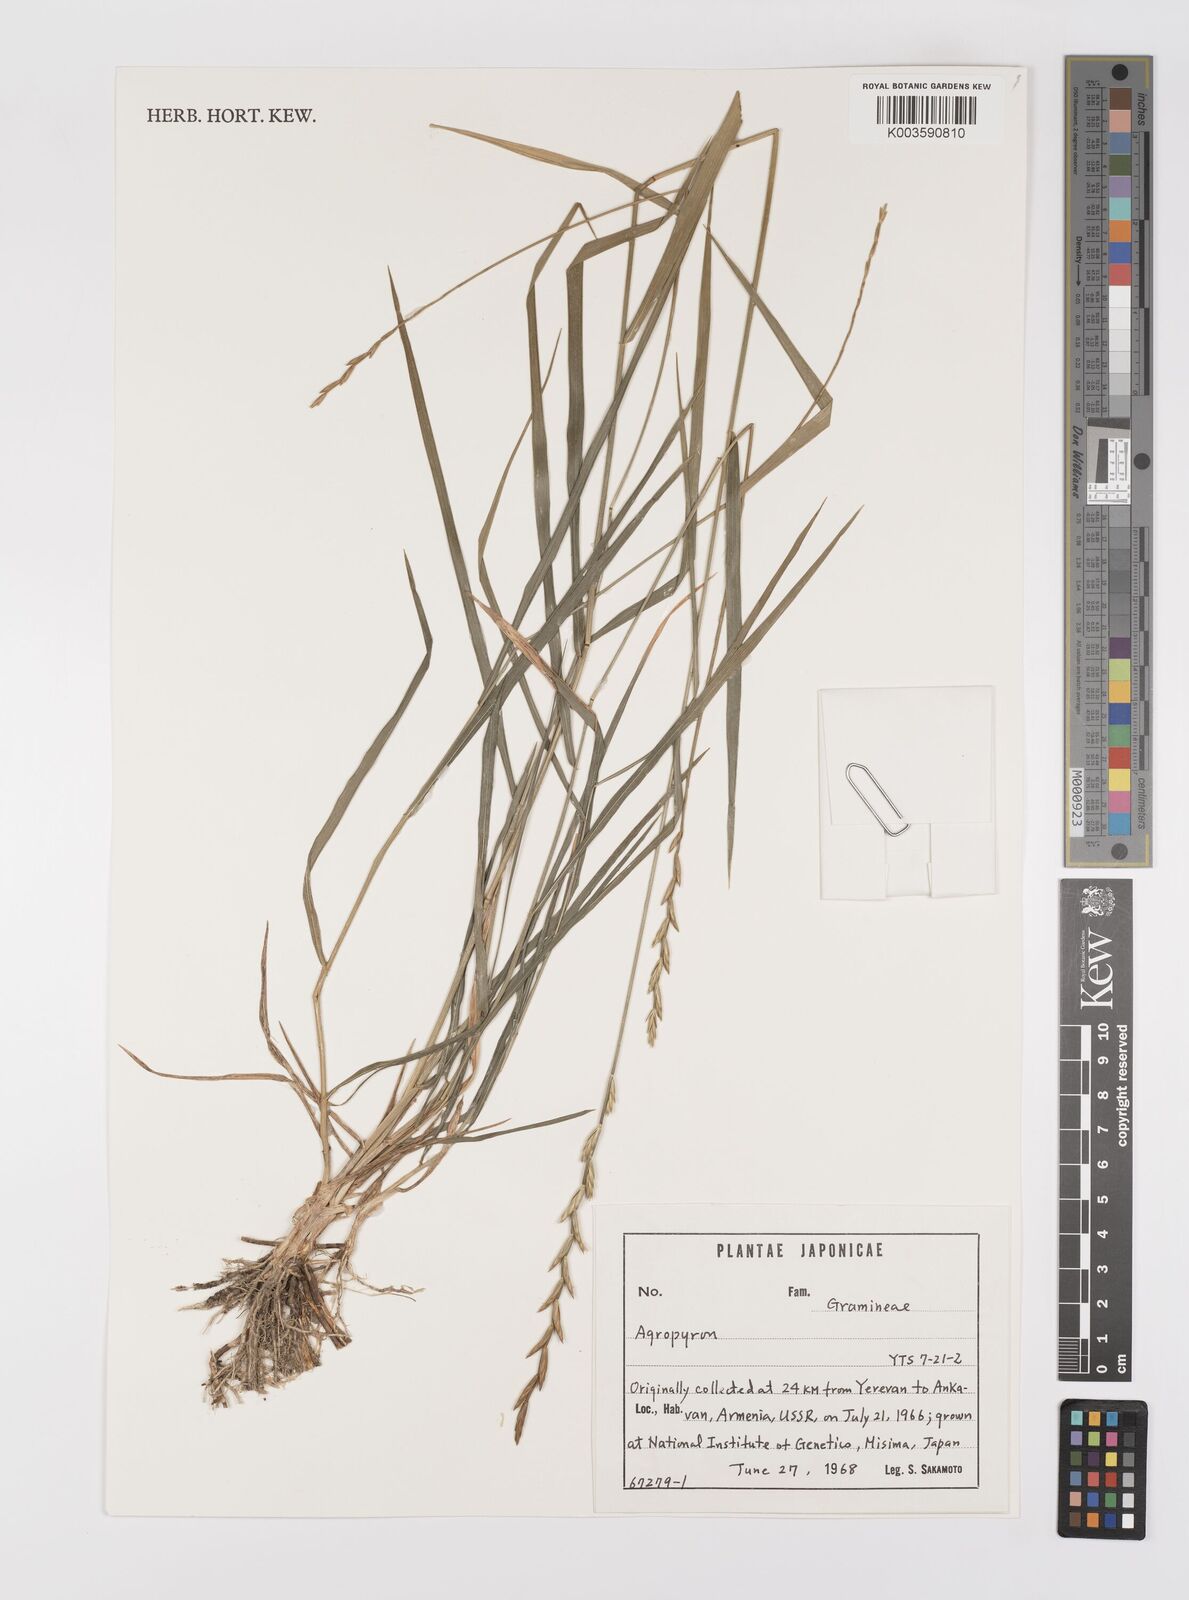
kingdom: Plantae
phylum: Tracheophyta
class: Liliopsida
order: Poales
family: Poaceae
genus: Elymus
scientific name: Elymus
